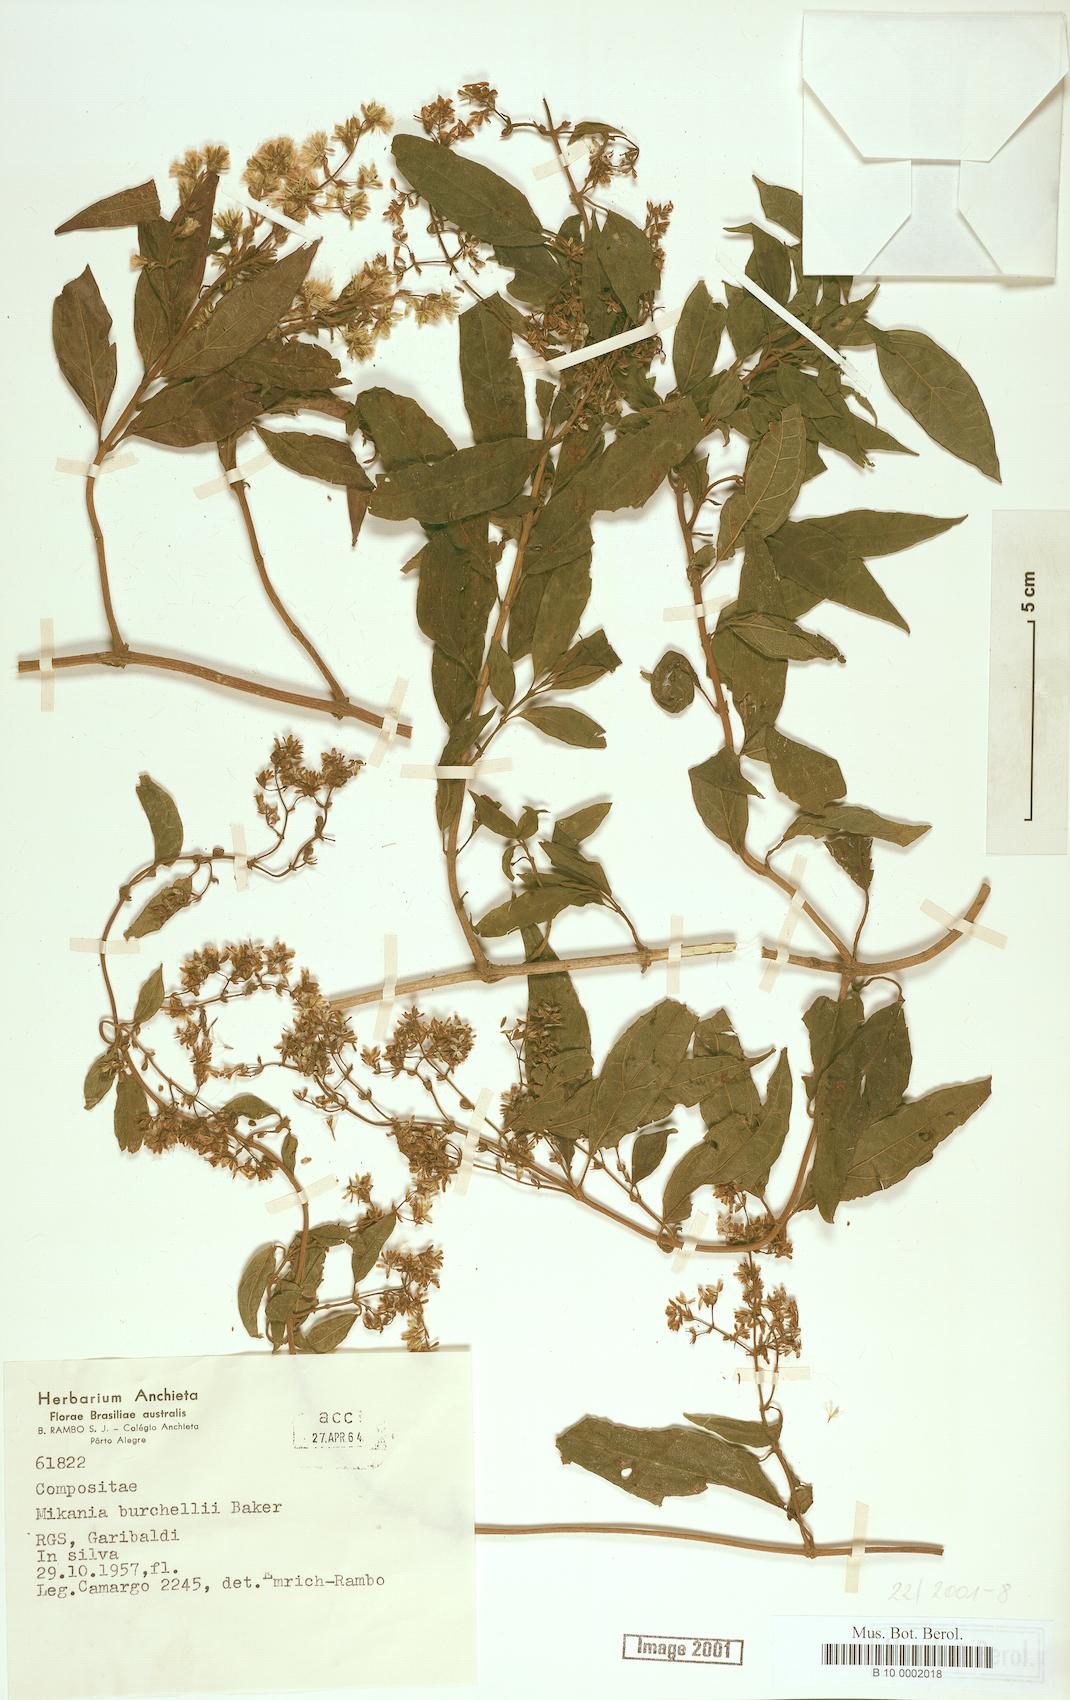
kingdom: Plantae
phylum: Tracheophyta
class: Magnoliopsida
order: Asterales
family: Asteraceae
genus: Mikania
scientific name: Mikania burchellii
